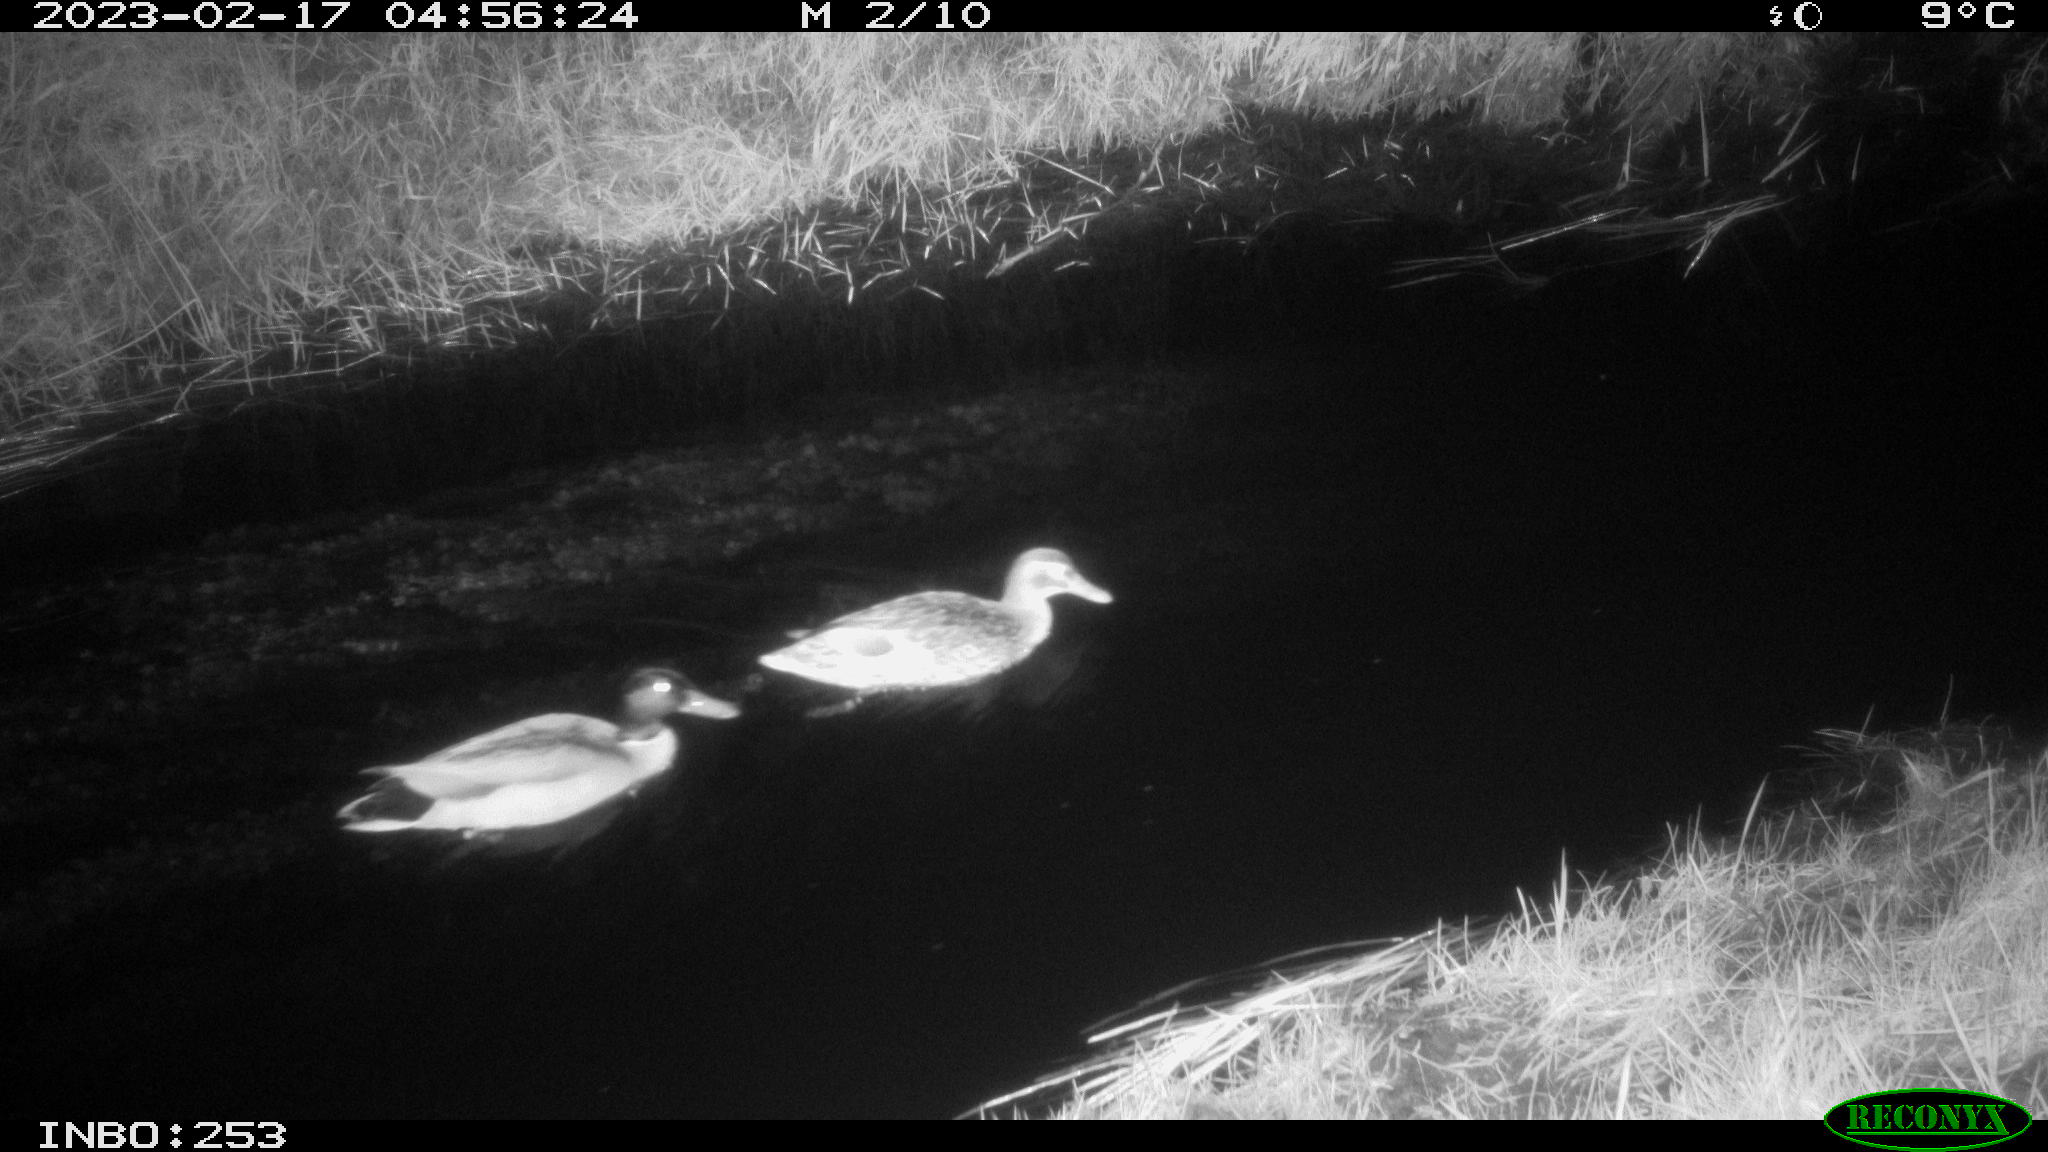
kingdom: Animalia
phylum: Chordata
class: Aves
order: Anseriformes
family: Anatidae
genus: Anas
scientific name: Anas
